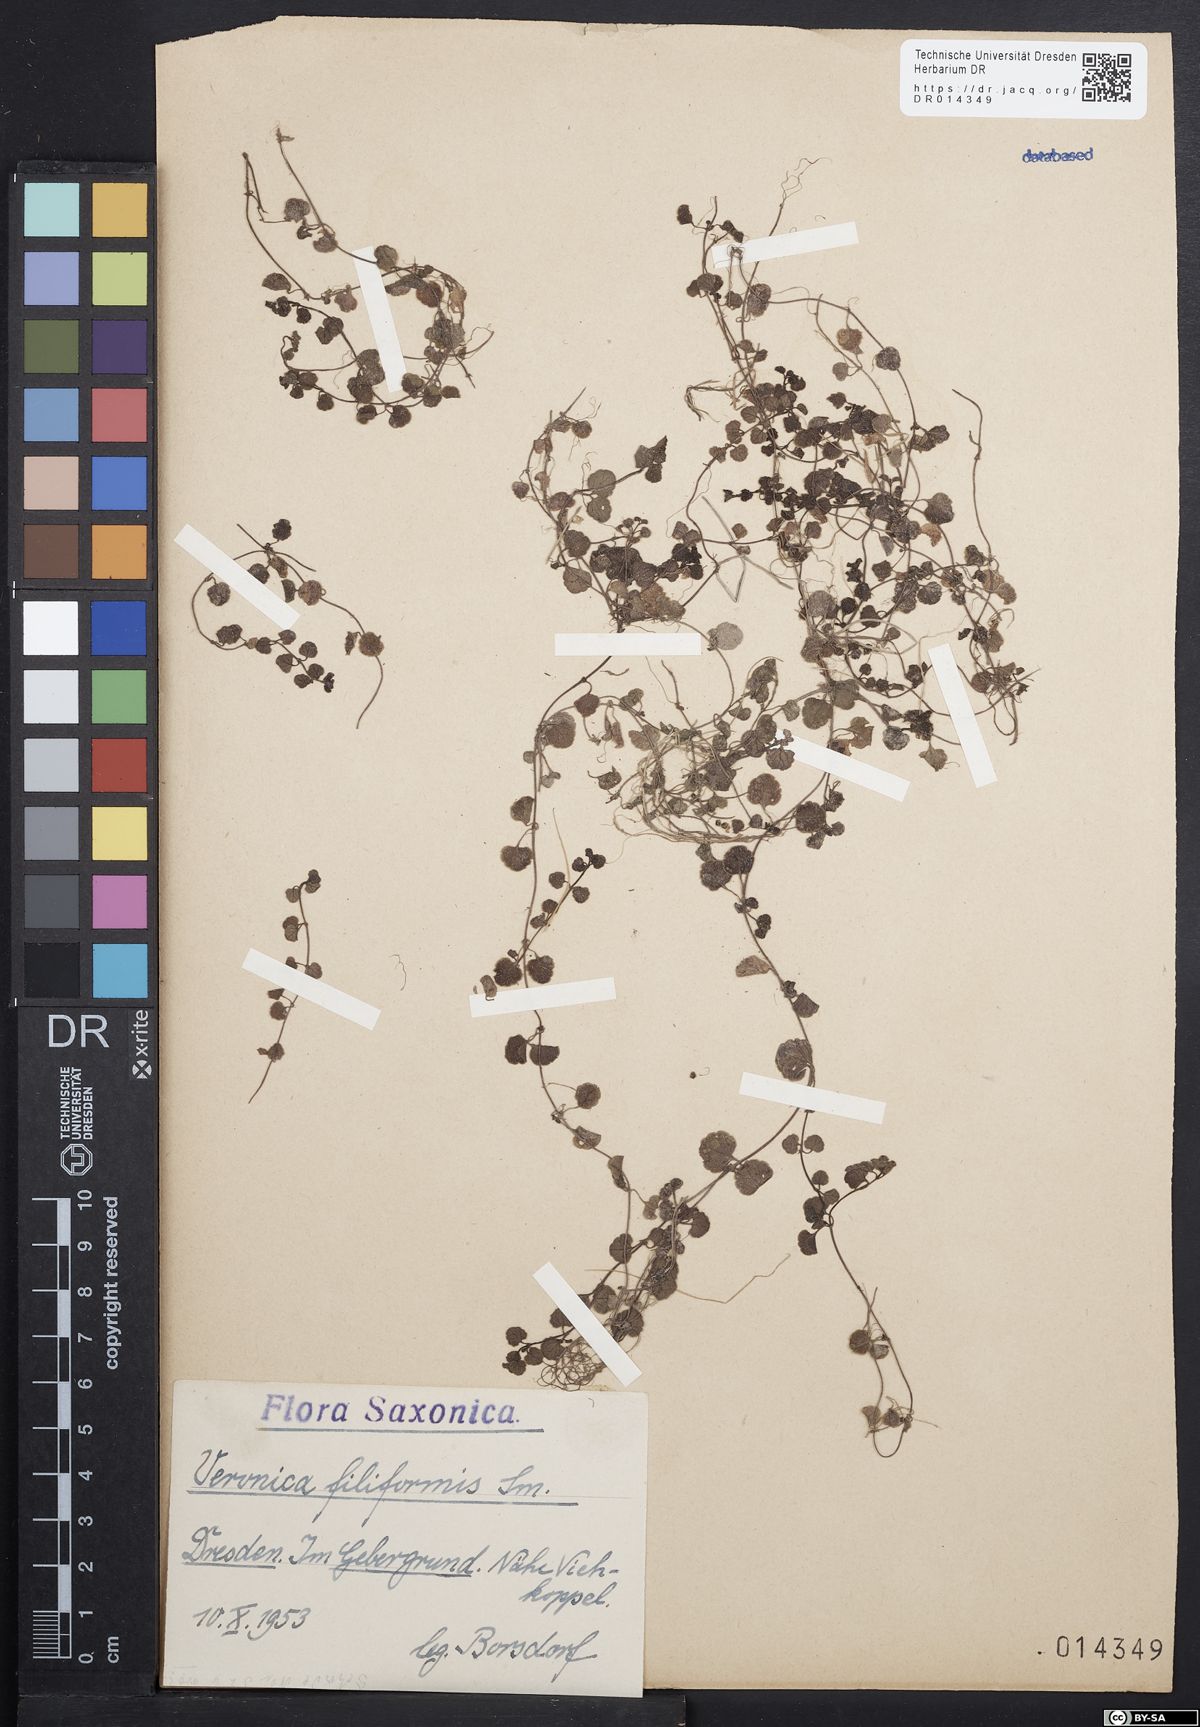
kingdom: Plantae
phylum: Tracheophyta
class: Magnoliopsida
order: Lamiales
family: Plantaginaceae
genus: Veronica
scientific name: Veronica filiformis
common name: Slender speedwell
